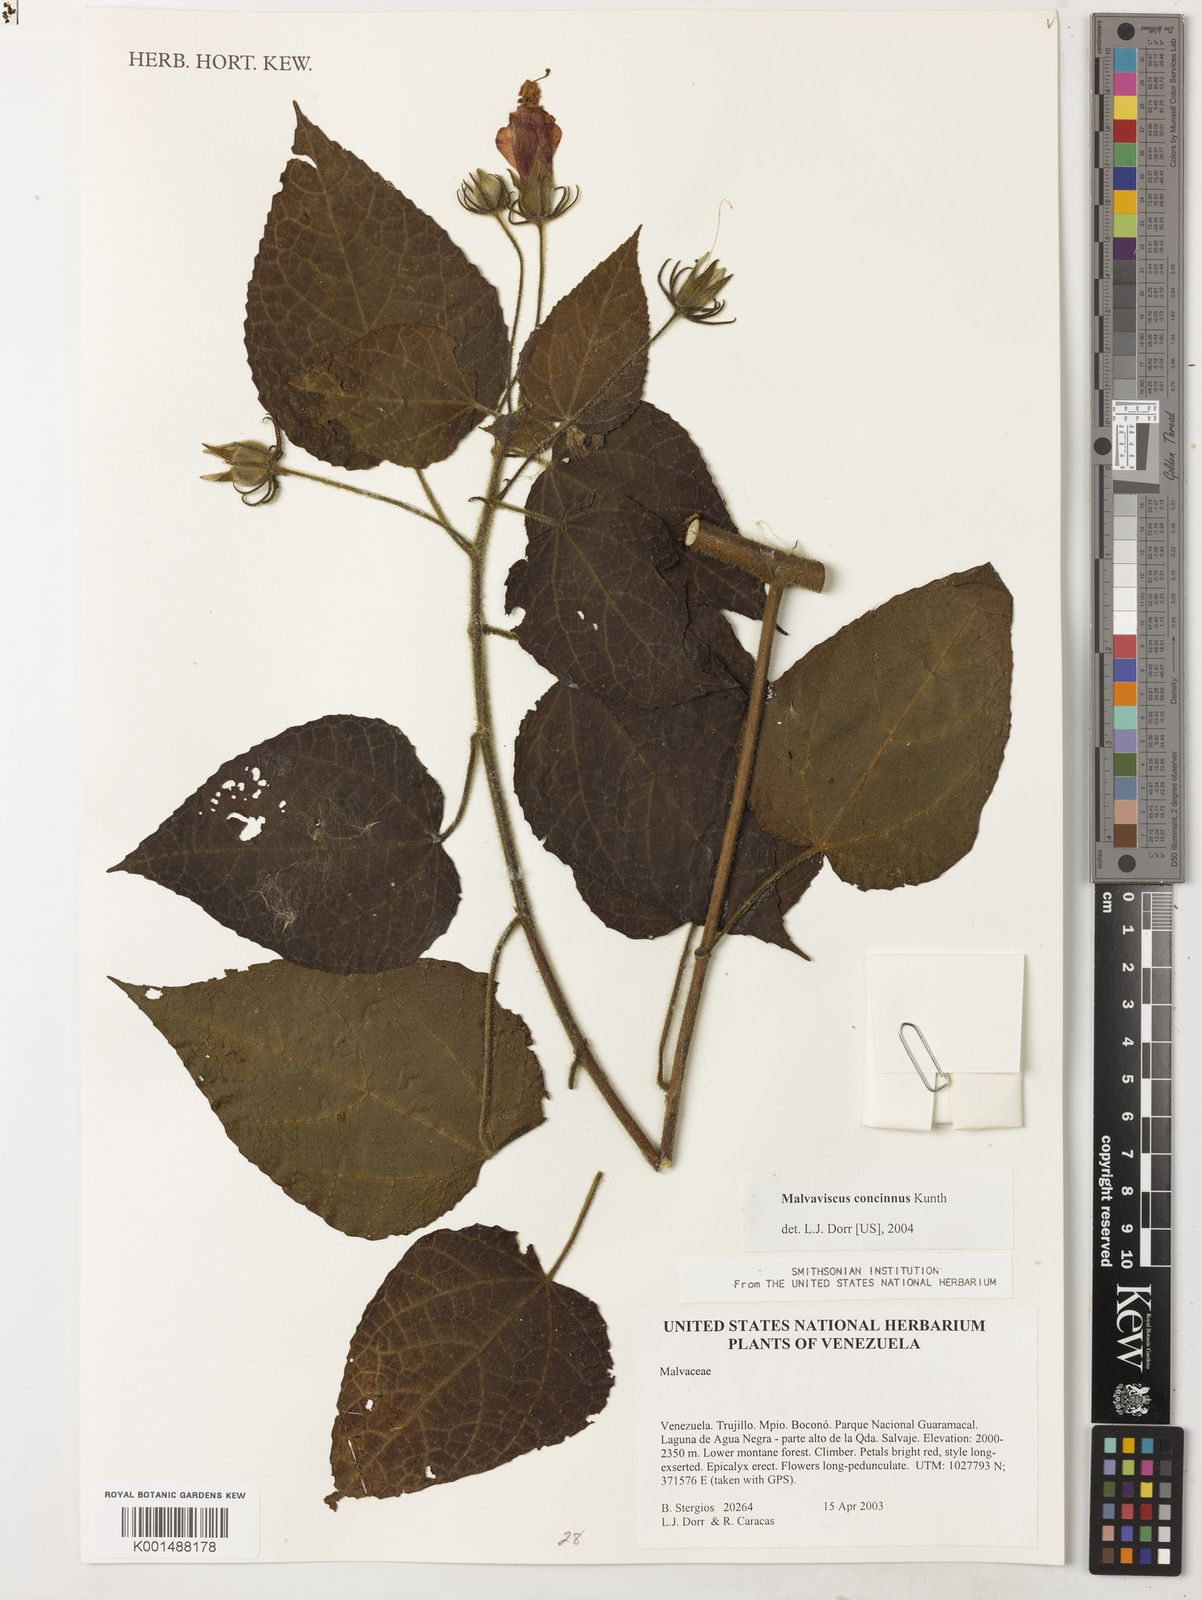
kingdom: Plantae
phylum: Tracheophyta
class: Magnoliopsida
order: Malvales
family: Malvaceae
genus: Hibiscus
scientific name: Hibiscus coccineus
